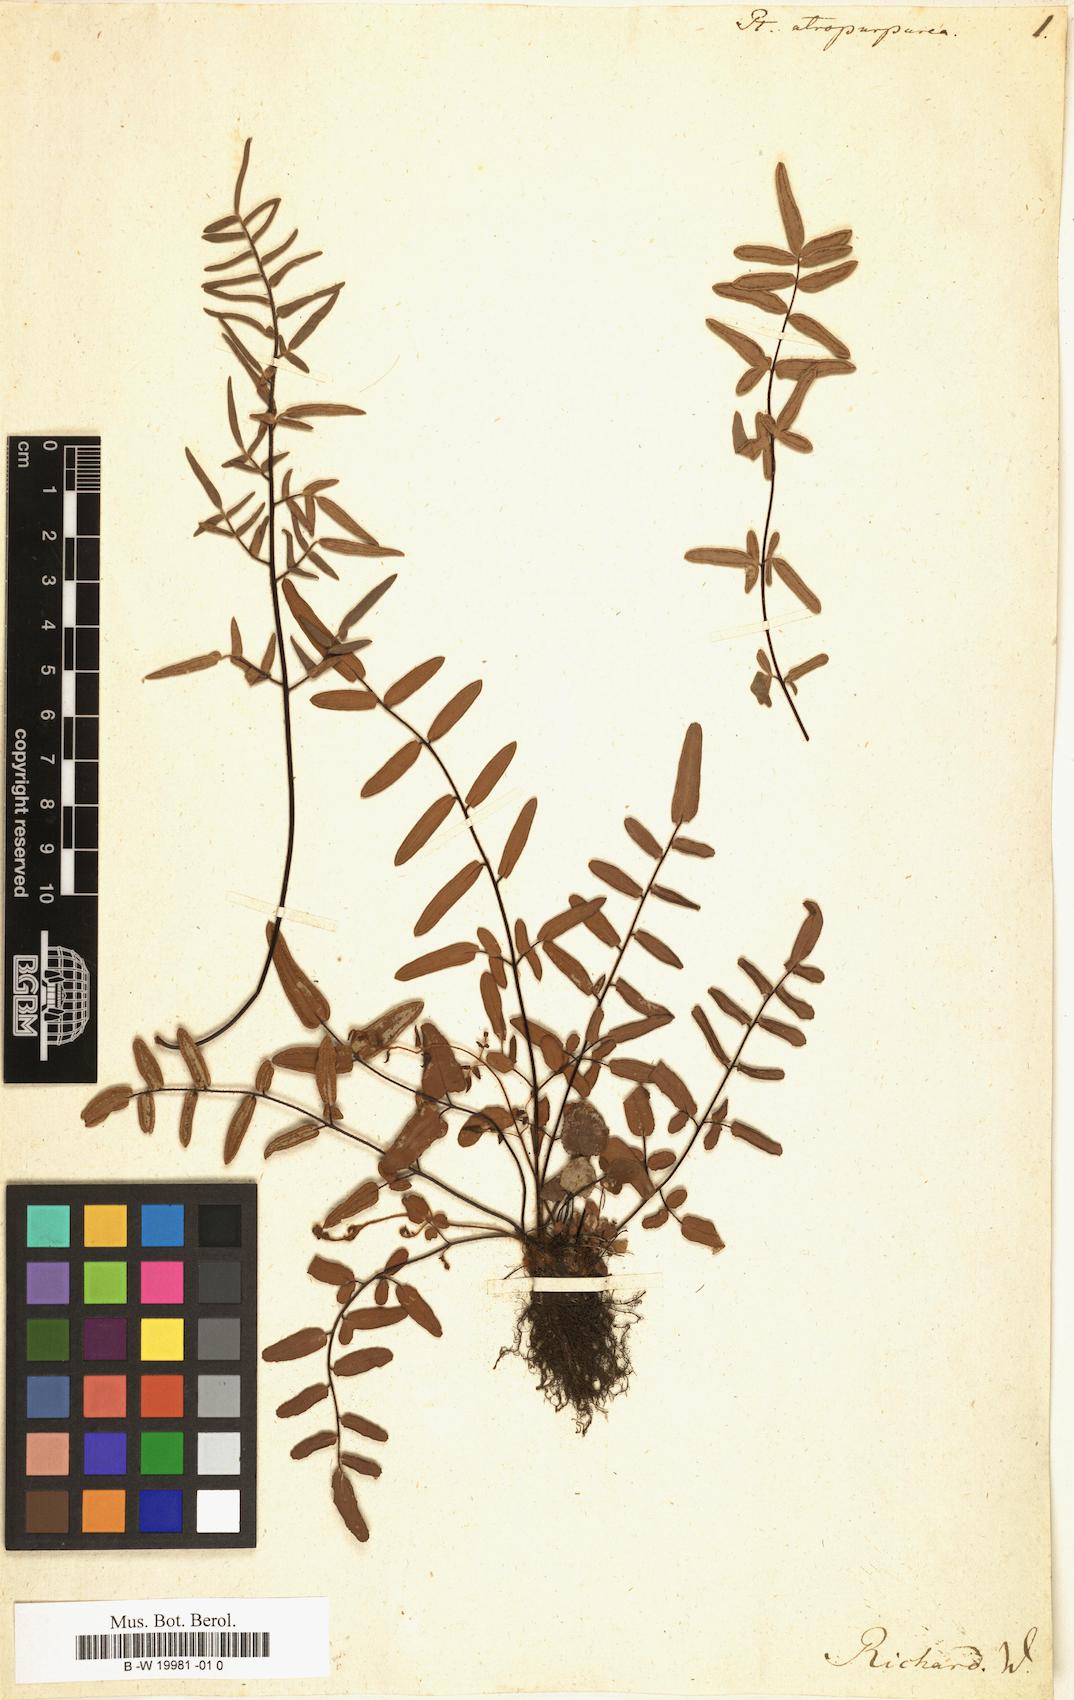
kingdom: Plantae
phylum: Tracheophyta
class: Polypodiopsida
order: Polypodiales
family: Pteridaceae
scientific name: Pteridaceae
